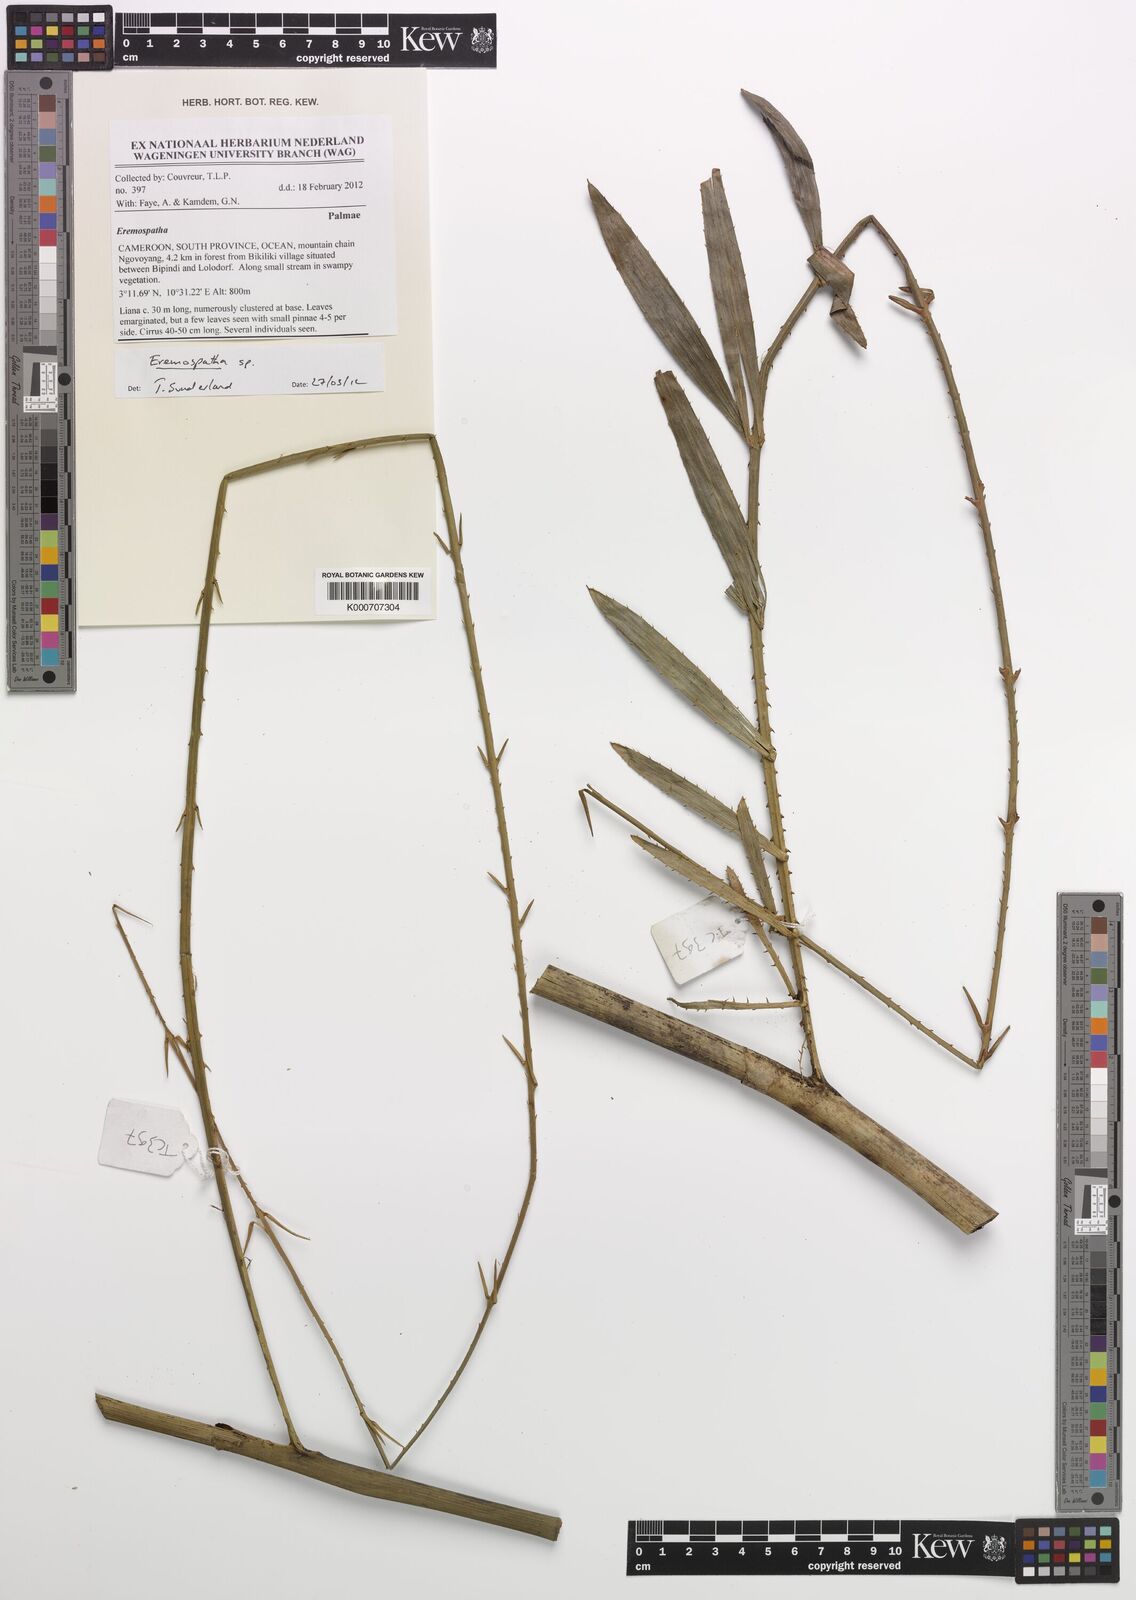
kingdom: Plantae
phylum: Tracheophyta
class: Liliopsida
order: Arecales
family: Arecaceae
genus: Eremospatha
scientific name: Eremospatha
